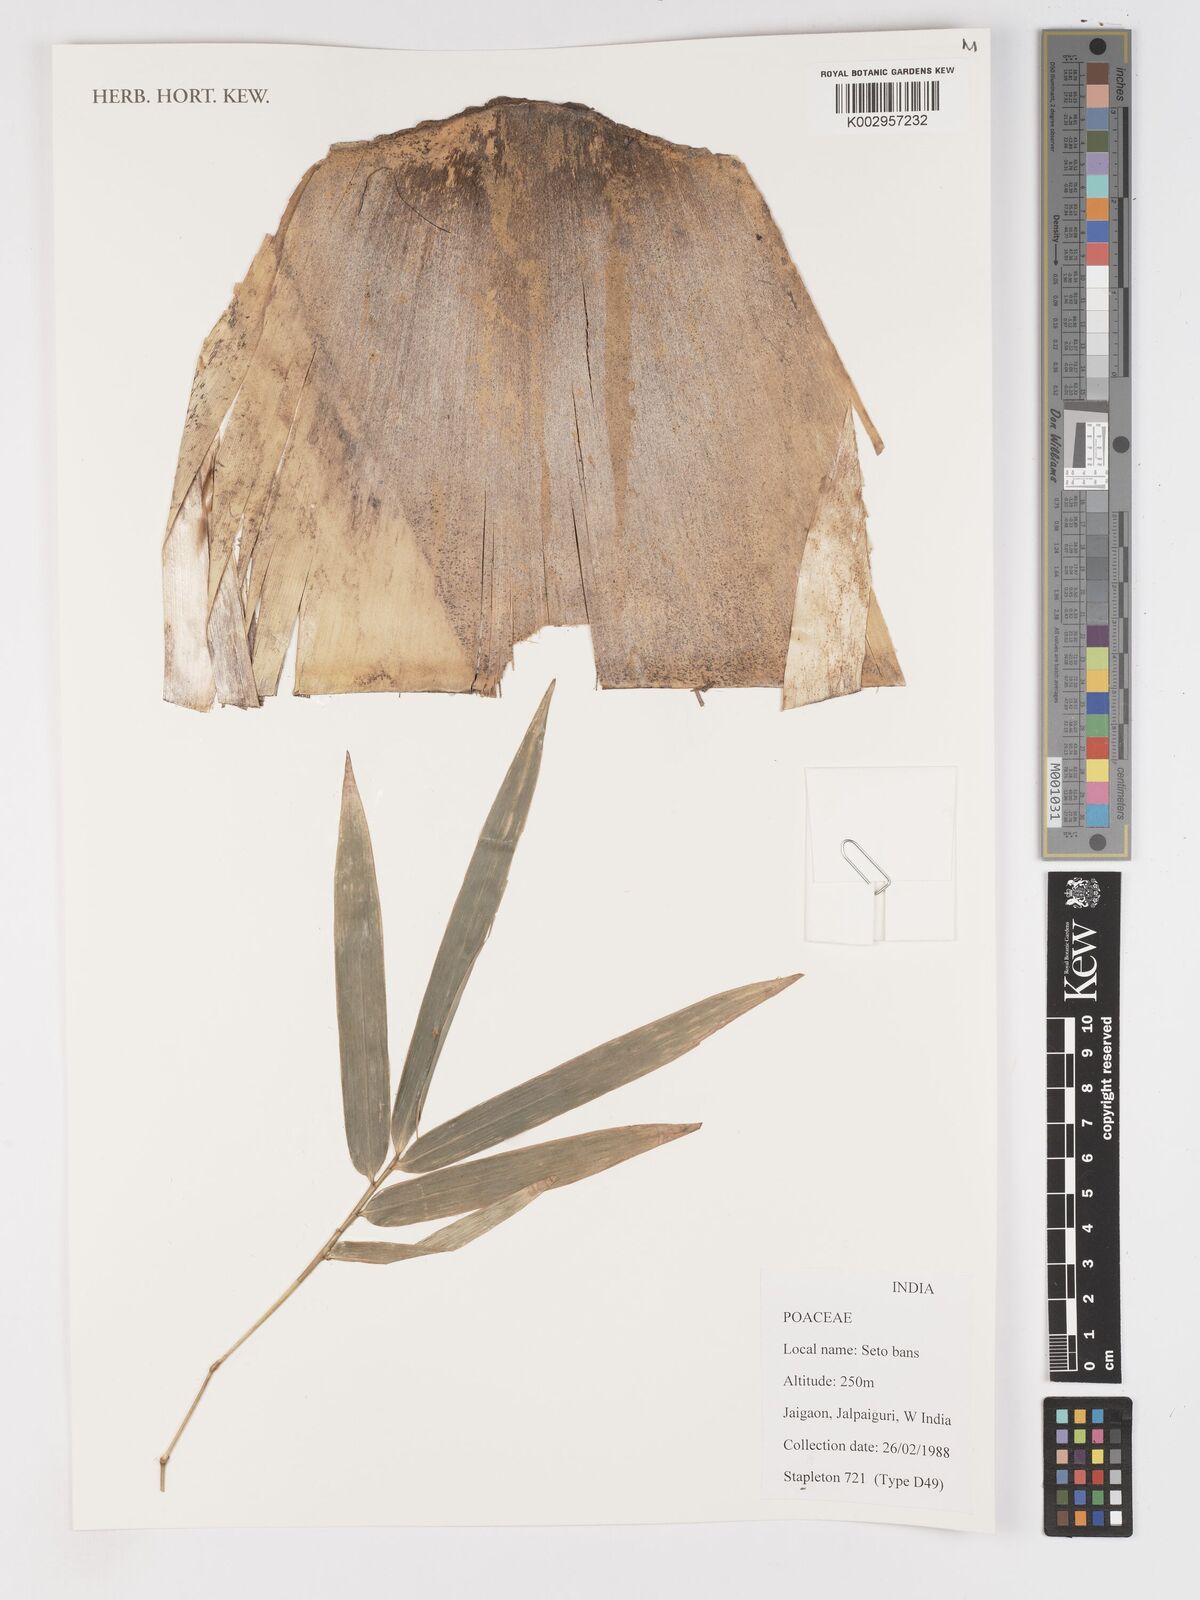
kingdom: Plantae
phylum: Tracheophyta
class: Liliopsida
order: Poales
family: Poaceae
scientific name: Poaceae
